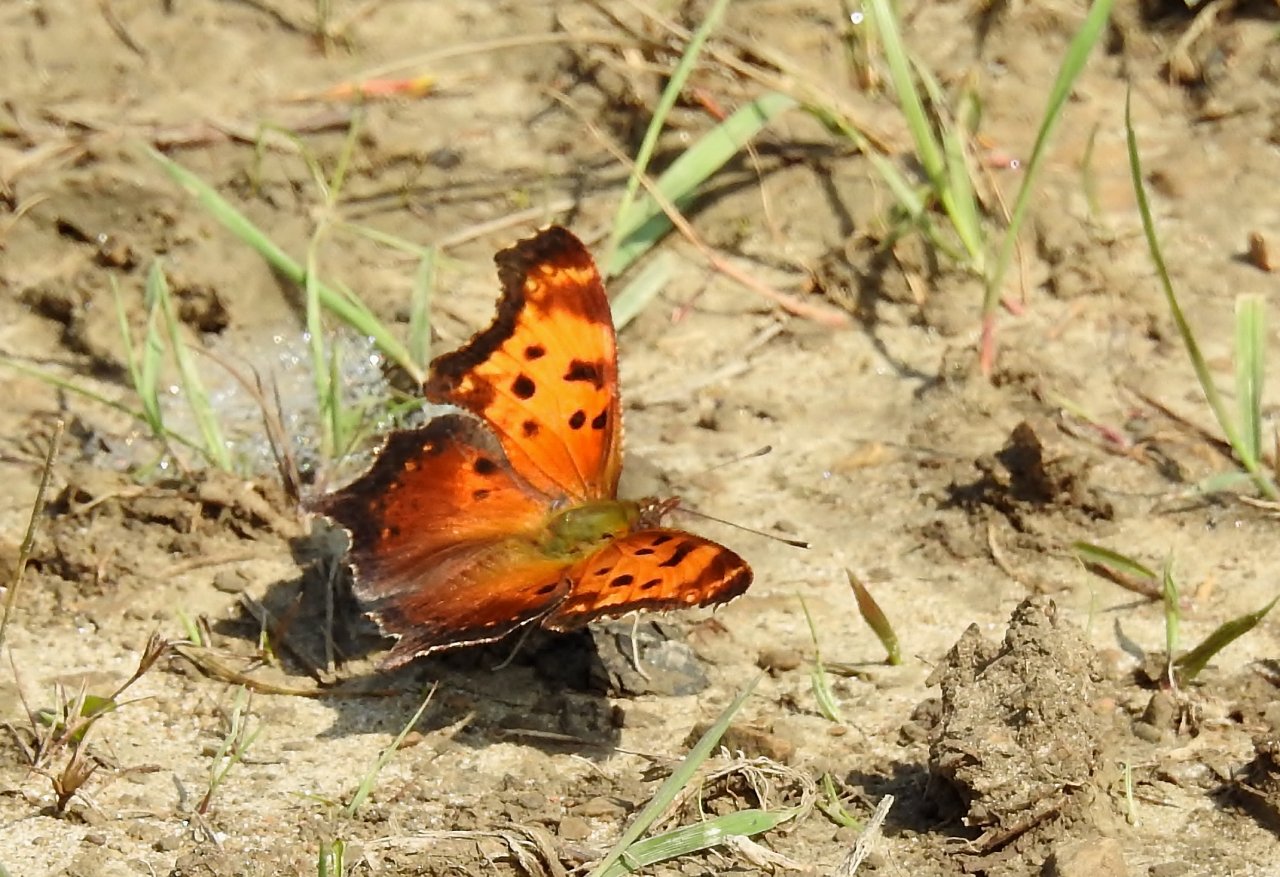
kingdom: Animalia
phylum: Arthropoda
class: Insecta
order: Lepidoptera
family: Nymphalidae
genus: Polygonia
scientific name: Polygonia progne
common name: Gray Comma
